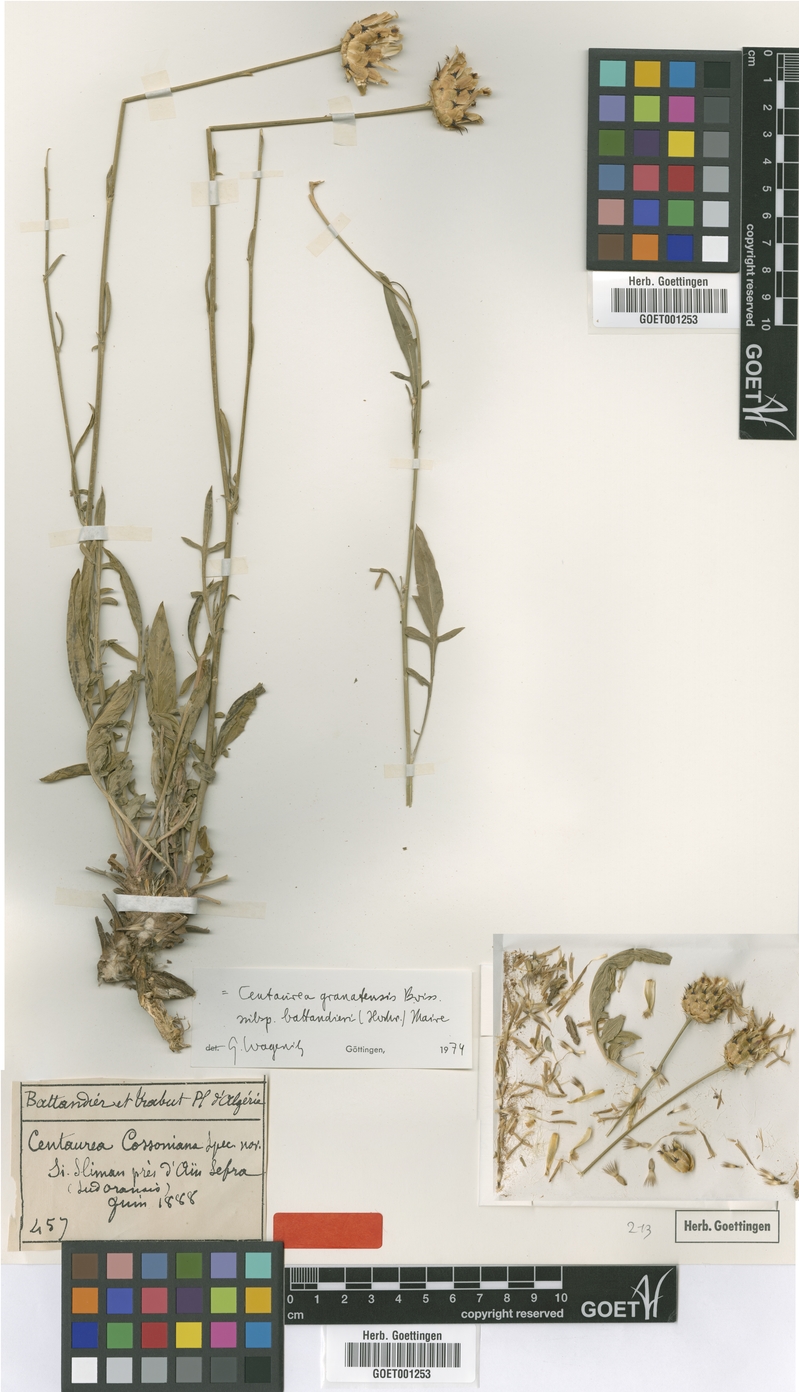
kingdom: Plantae
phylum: Tracheophyta
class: Magnoliopsida
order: Asterales
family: Asteraceae
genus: Centaurea
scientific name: Centaurea malinvaldiana
